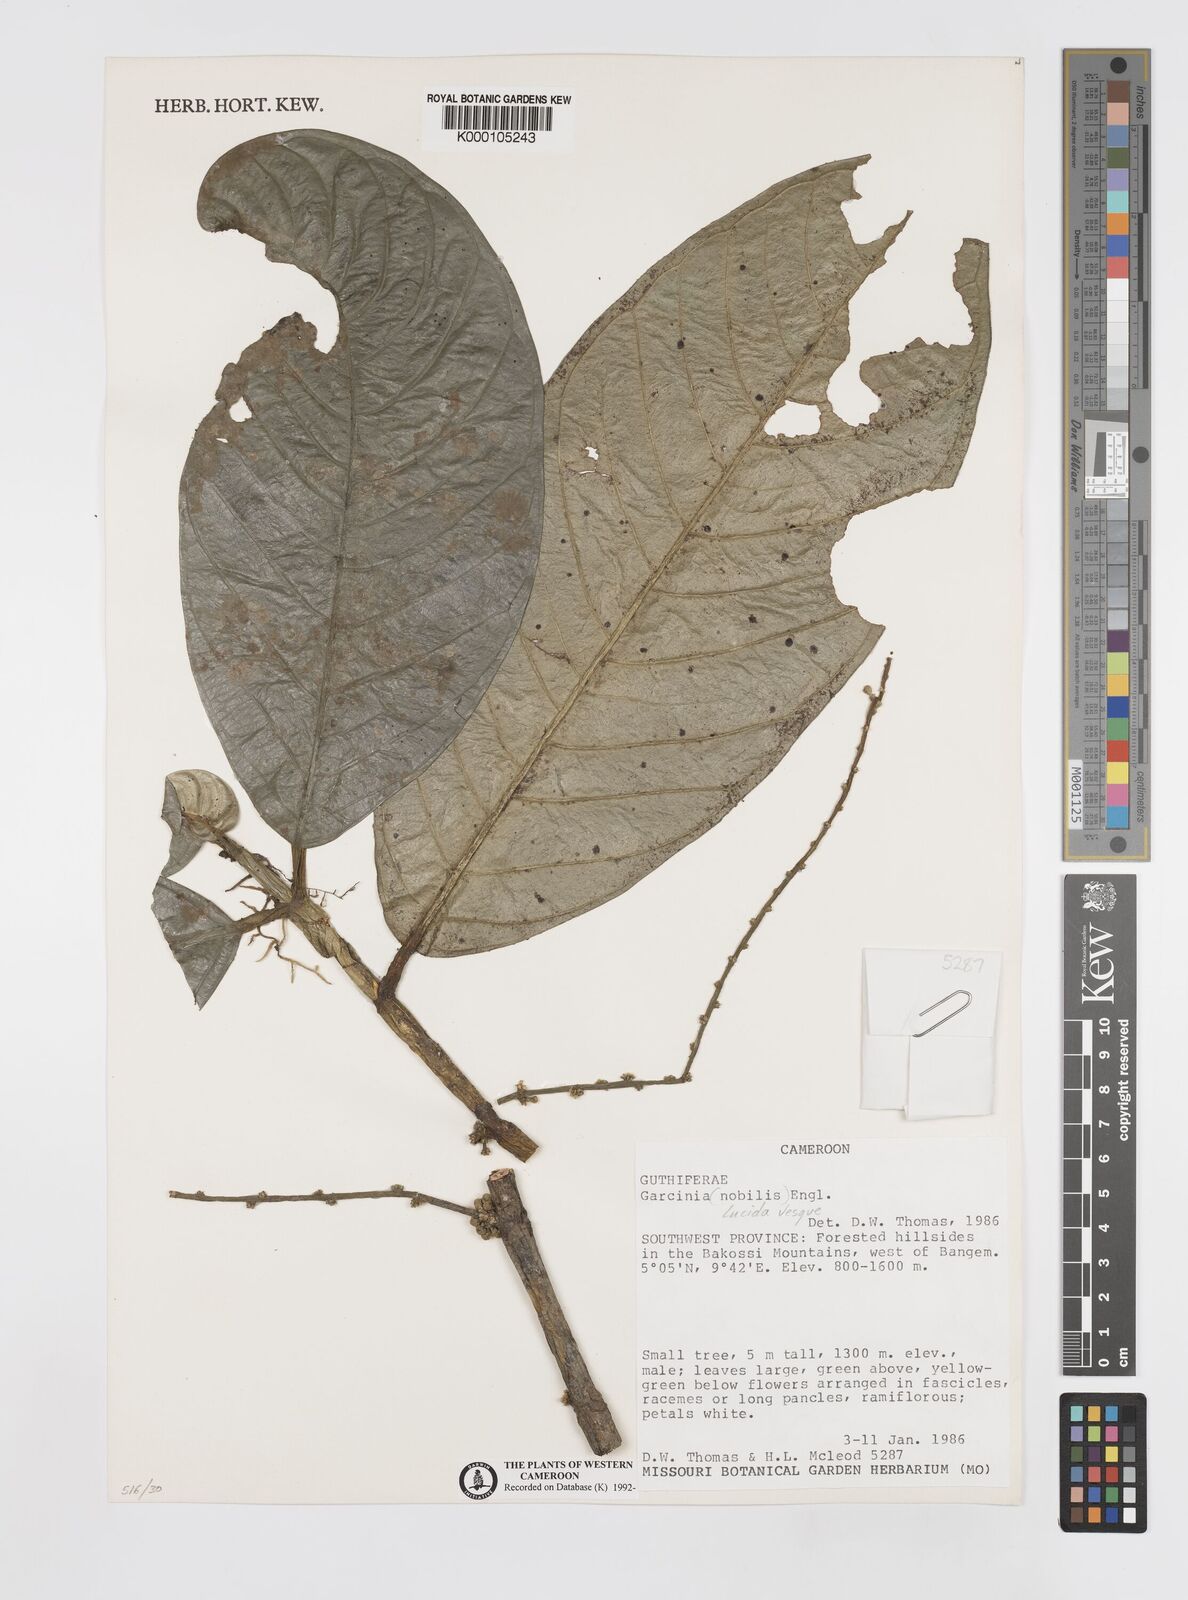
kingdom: Plantae
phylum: Tracheophyta
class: Magnoliopsida
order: Malpighiales
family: Clusiaceae
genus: Garcinia
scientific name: Garcinia lucida
